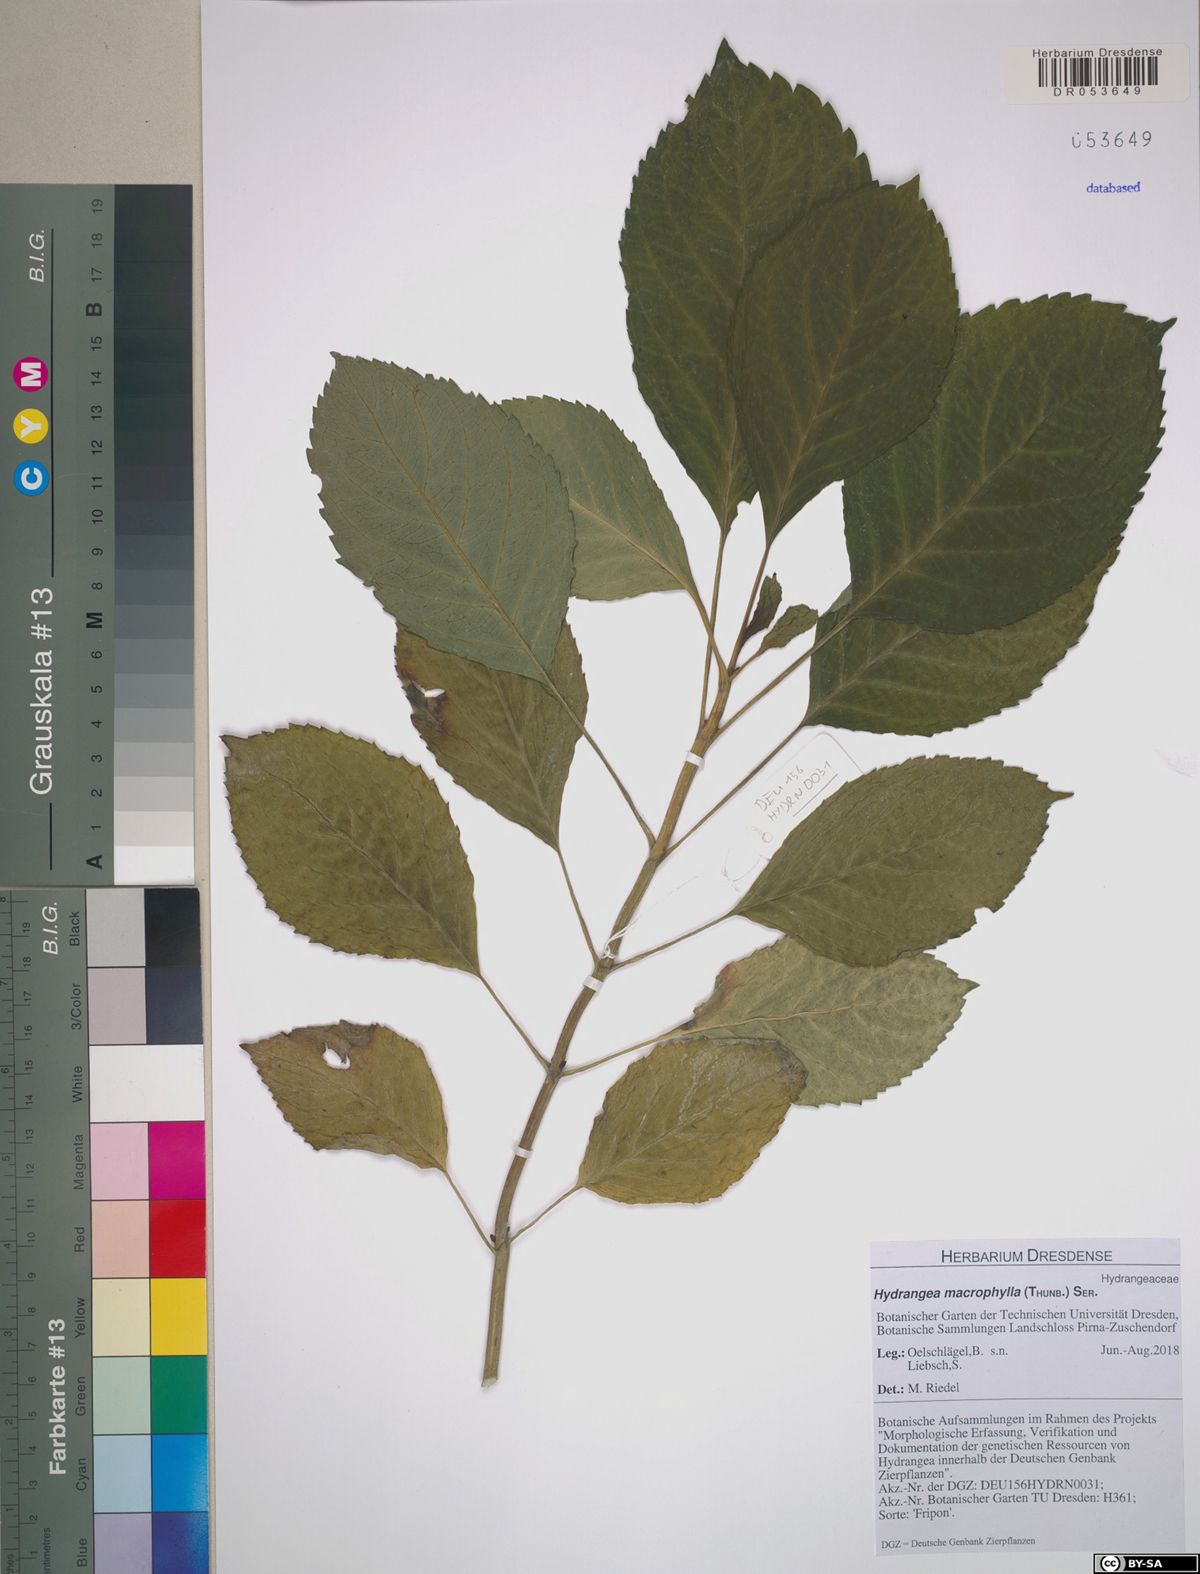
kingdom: Plantae
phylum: Tracheophyta
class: Magnoliopsida
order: Cornales
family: Hydrangeaceae
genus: Hydrangea
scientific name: Hydrangea macrophylla
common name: Hydrangea
